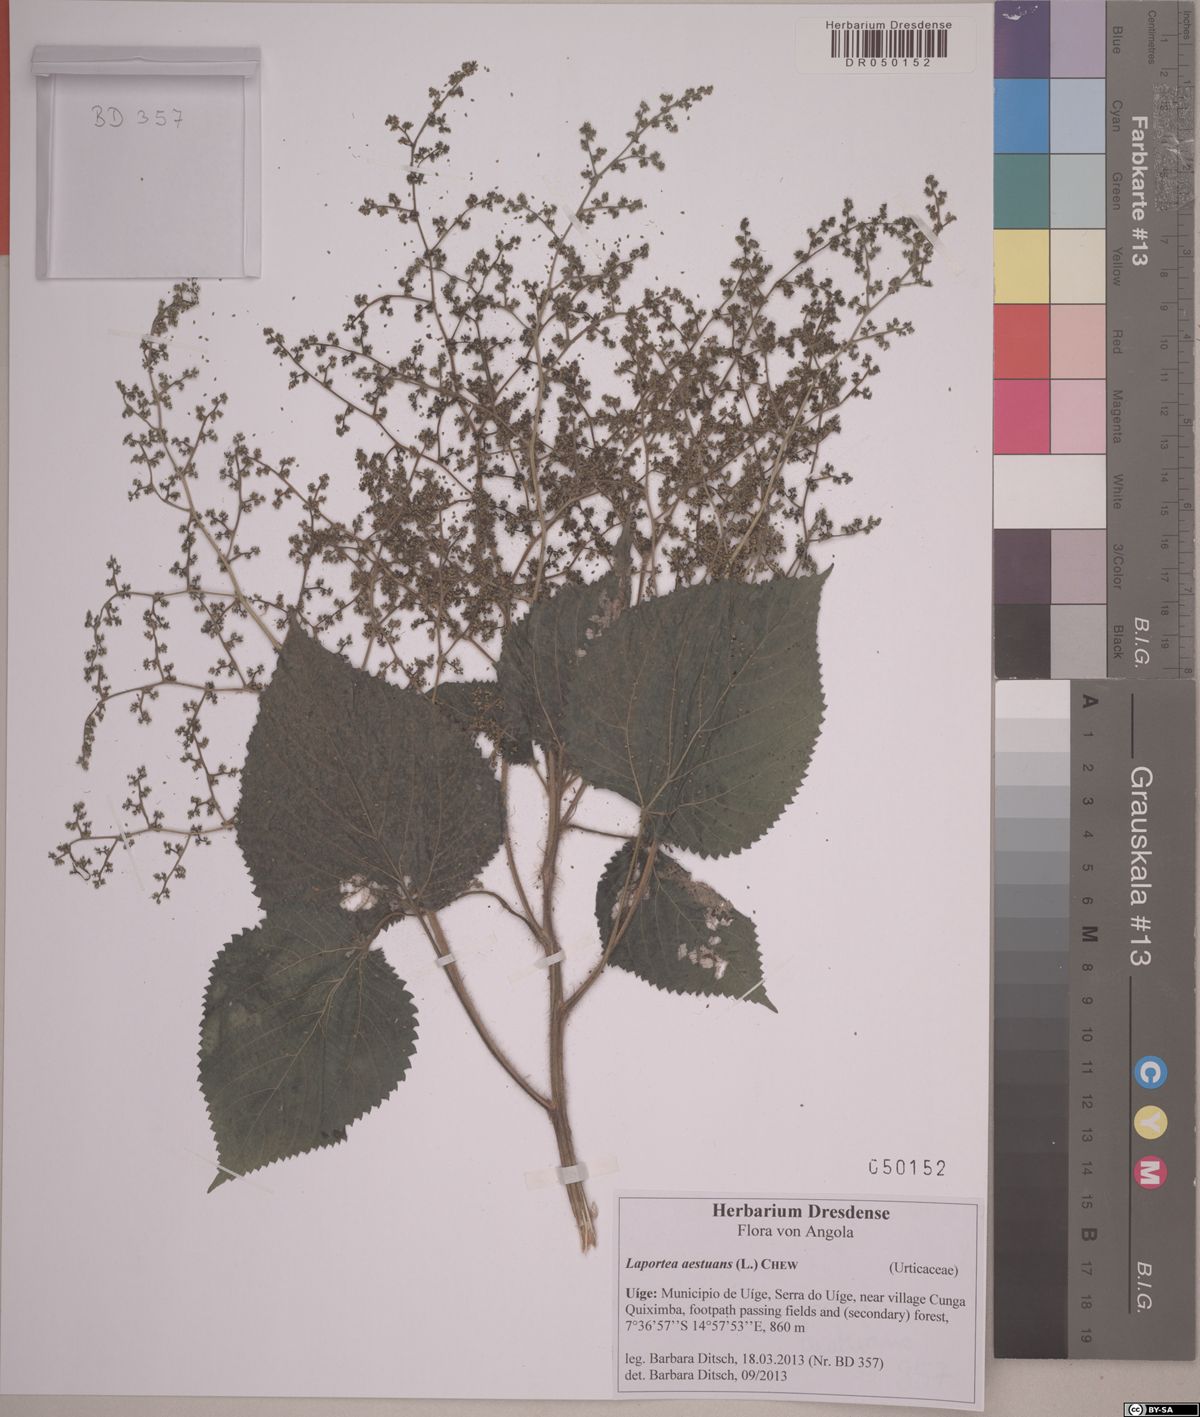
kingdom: Plantae
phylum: Tracheophyta
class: Magnoliopsida
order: Rosales
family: Urticaceae
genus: Laportea
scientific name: Laportea aestuans
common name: West indian woodnettle
